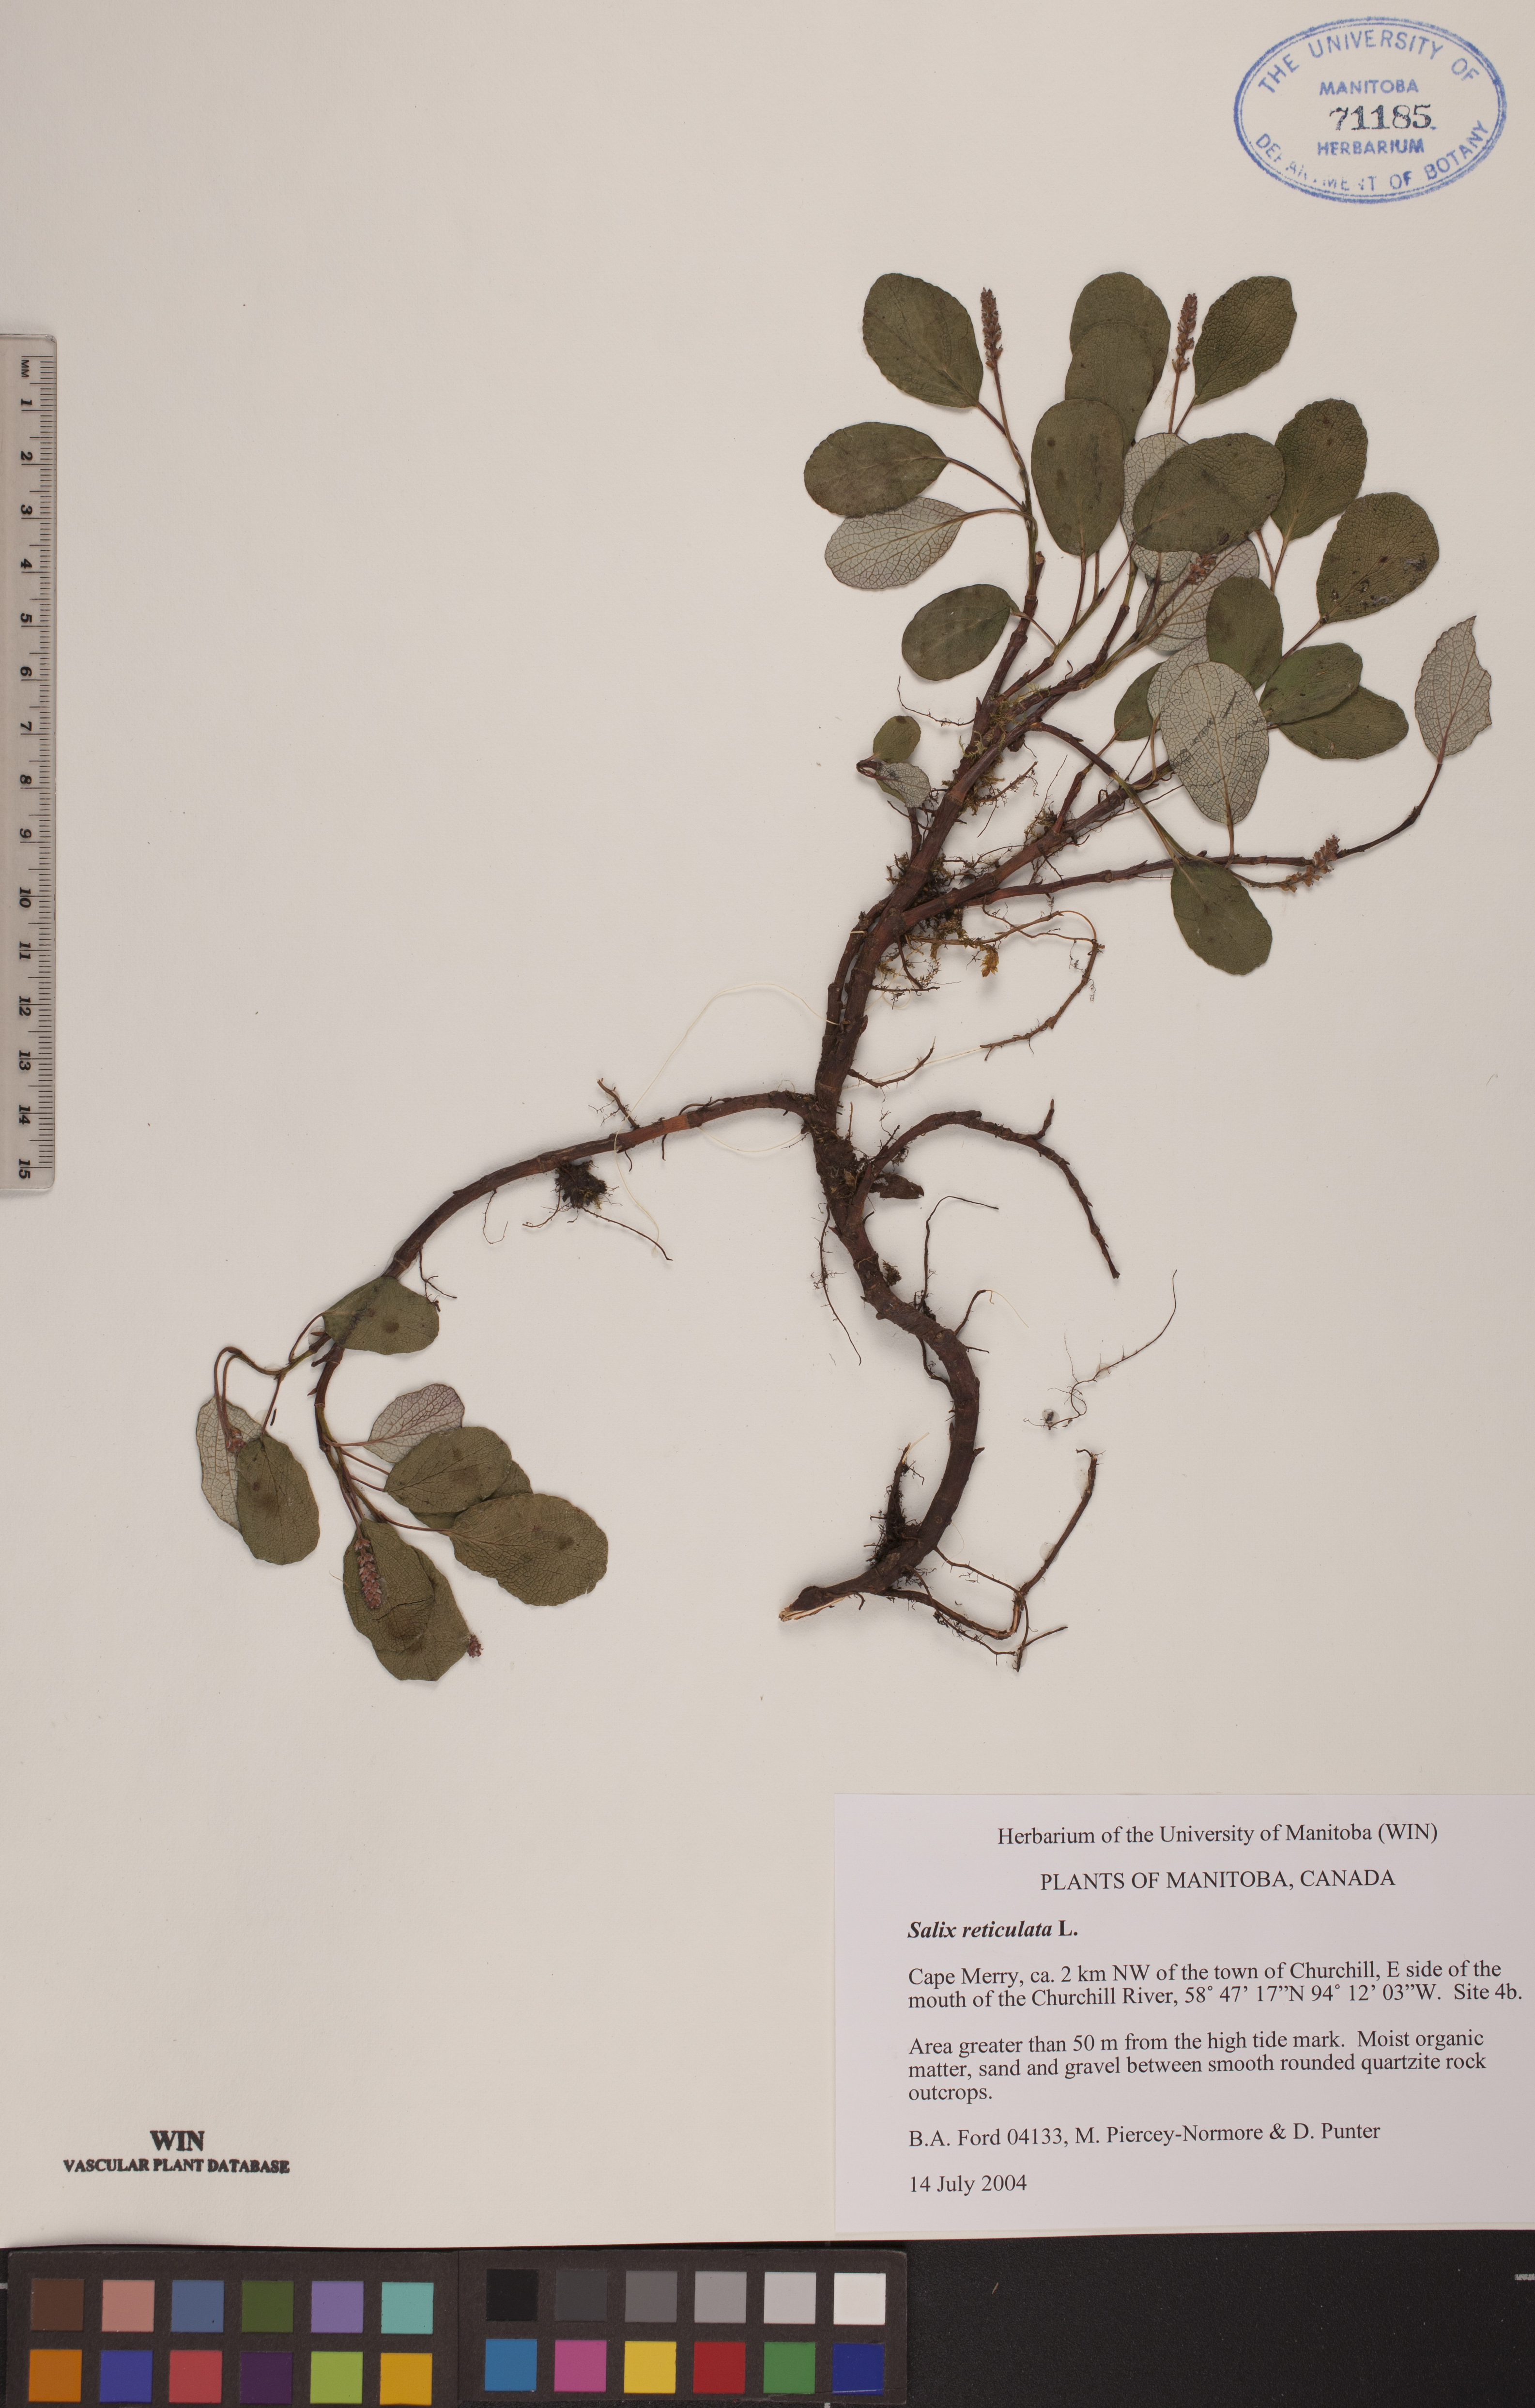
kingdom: Plantae
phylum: Tracheophyta
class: Magnoliopsida
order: Malpighiales
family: Salicaceae
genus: Salix
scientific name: Salix reticulata
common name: Net-leaved willow
